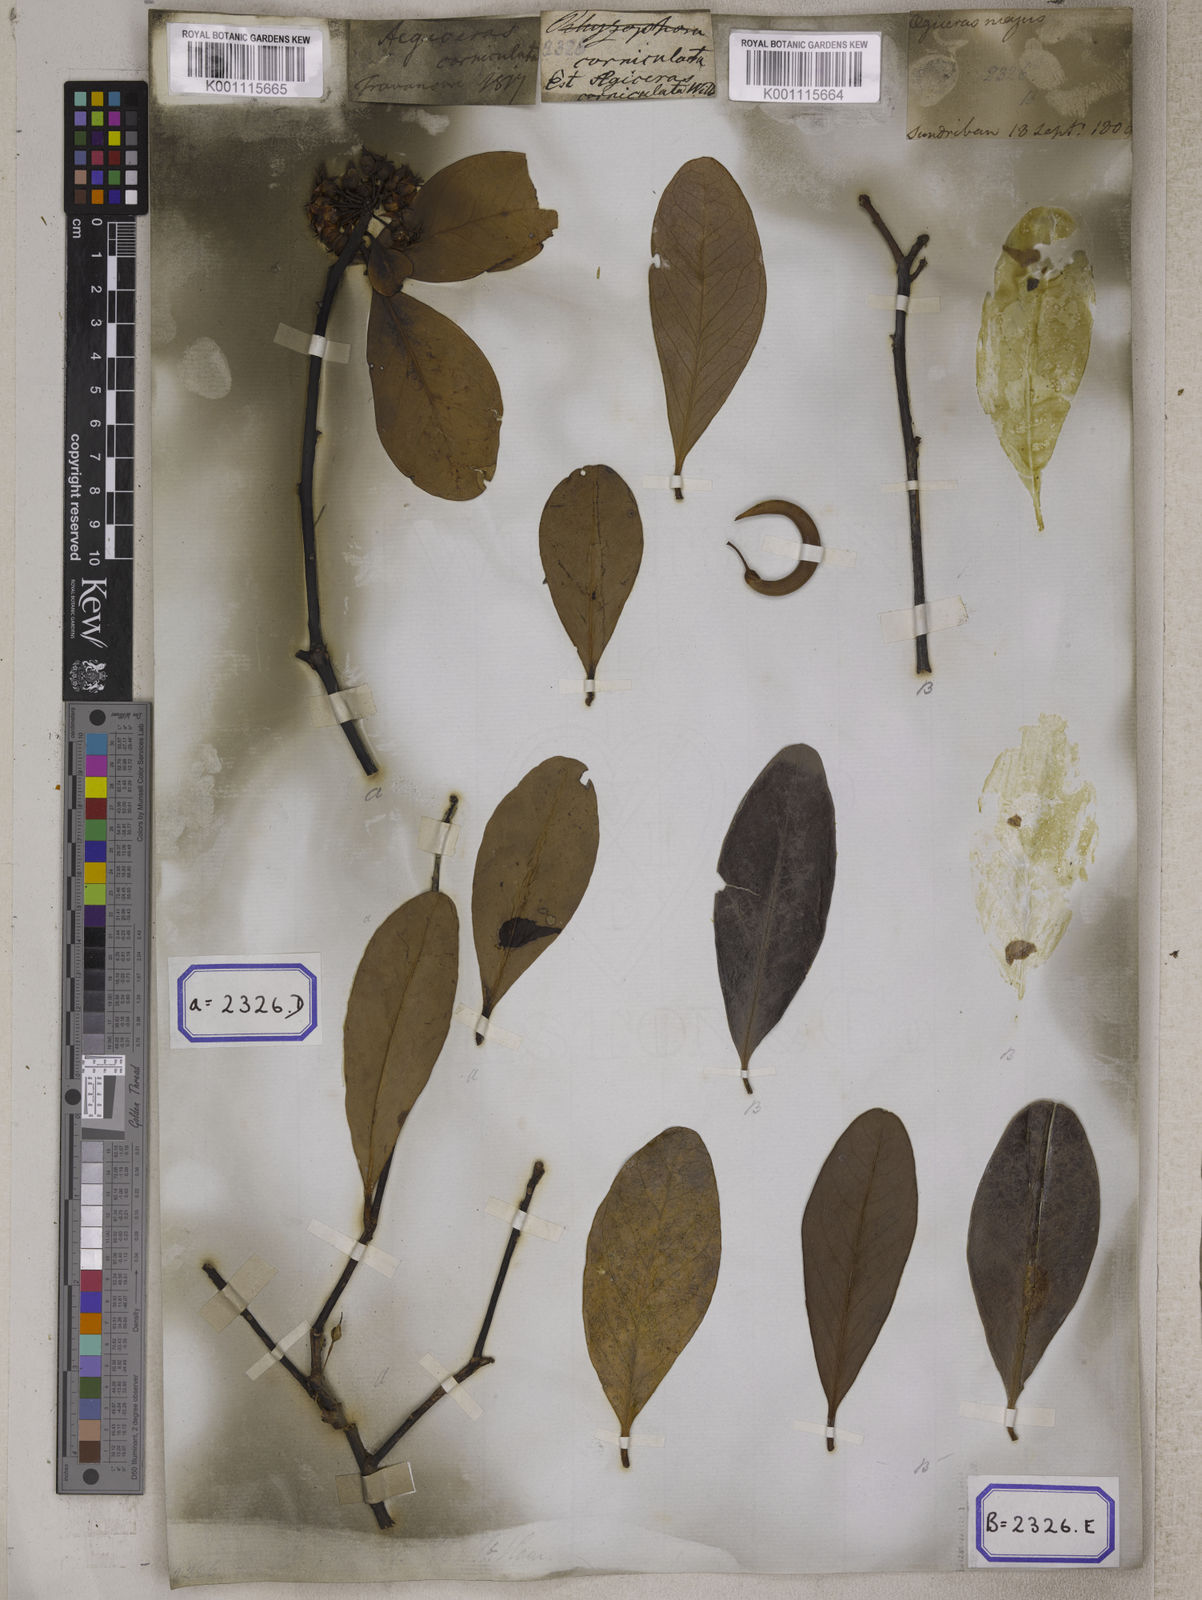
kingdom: Plantae
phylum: Tracheophyta
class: Magnoliopsida
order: Ericales
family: Primulaceae
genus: Aegiceras
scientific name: Aegiceras corniculatum
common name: River mangrove
